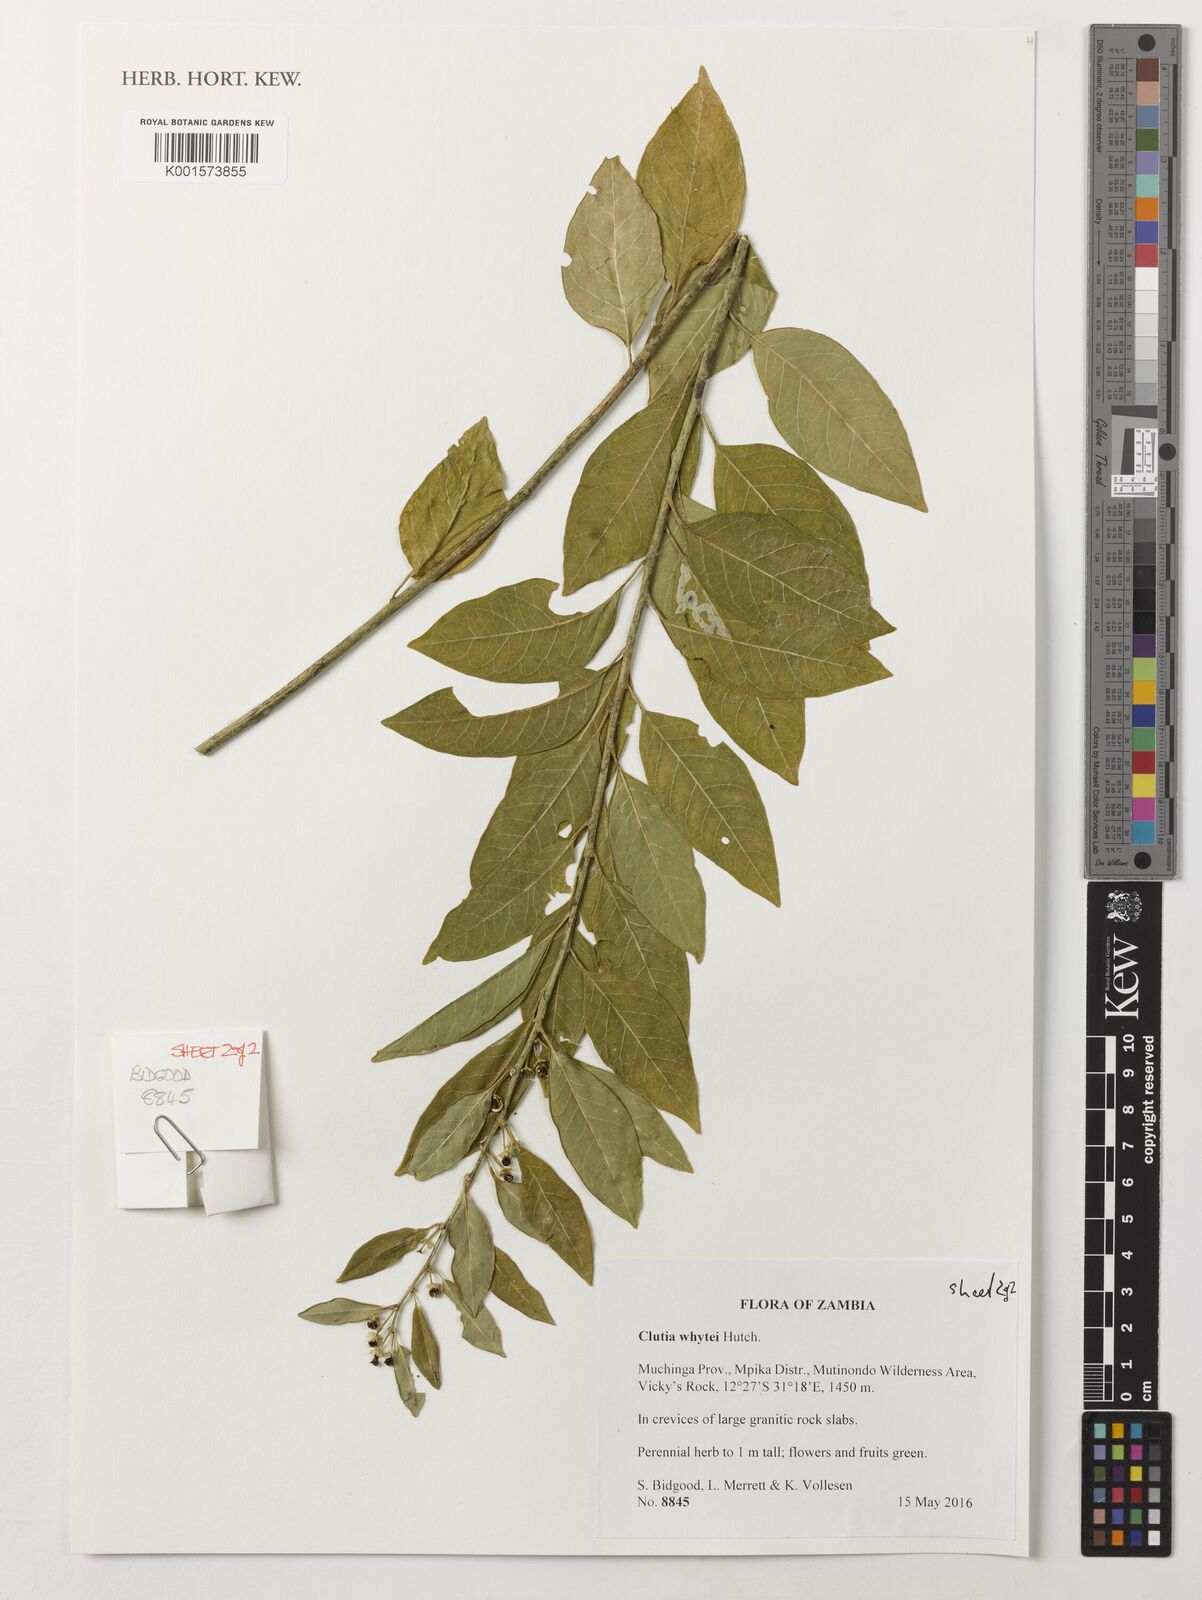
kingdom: Plantae
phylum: Tracheophyta
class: Magnoliopsida
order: Malpighiales
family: Peraceae
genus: Clutia
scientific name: Clutia whytei
